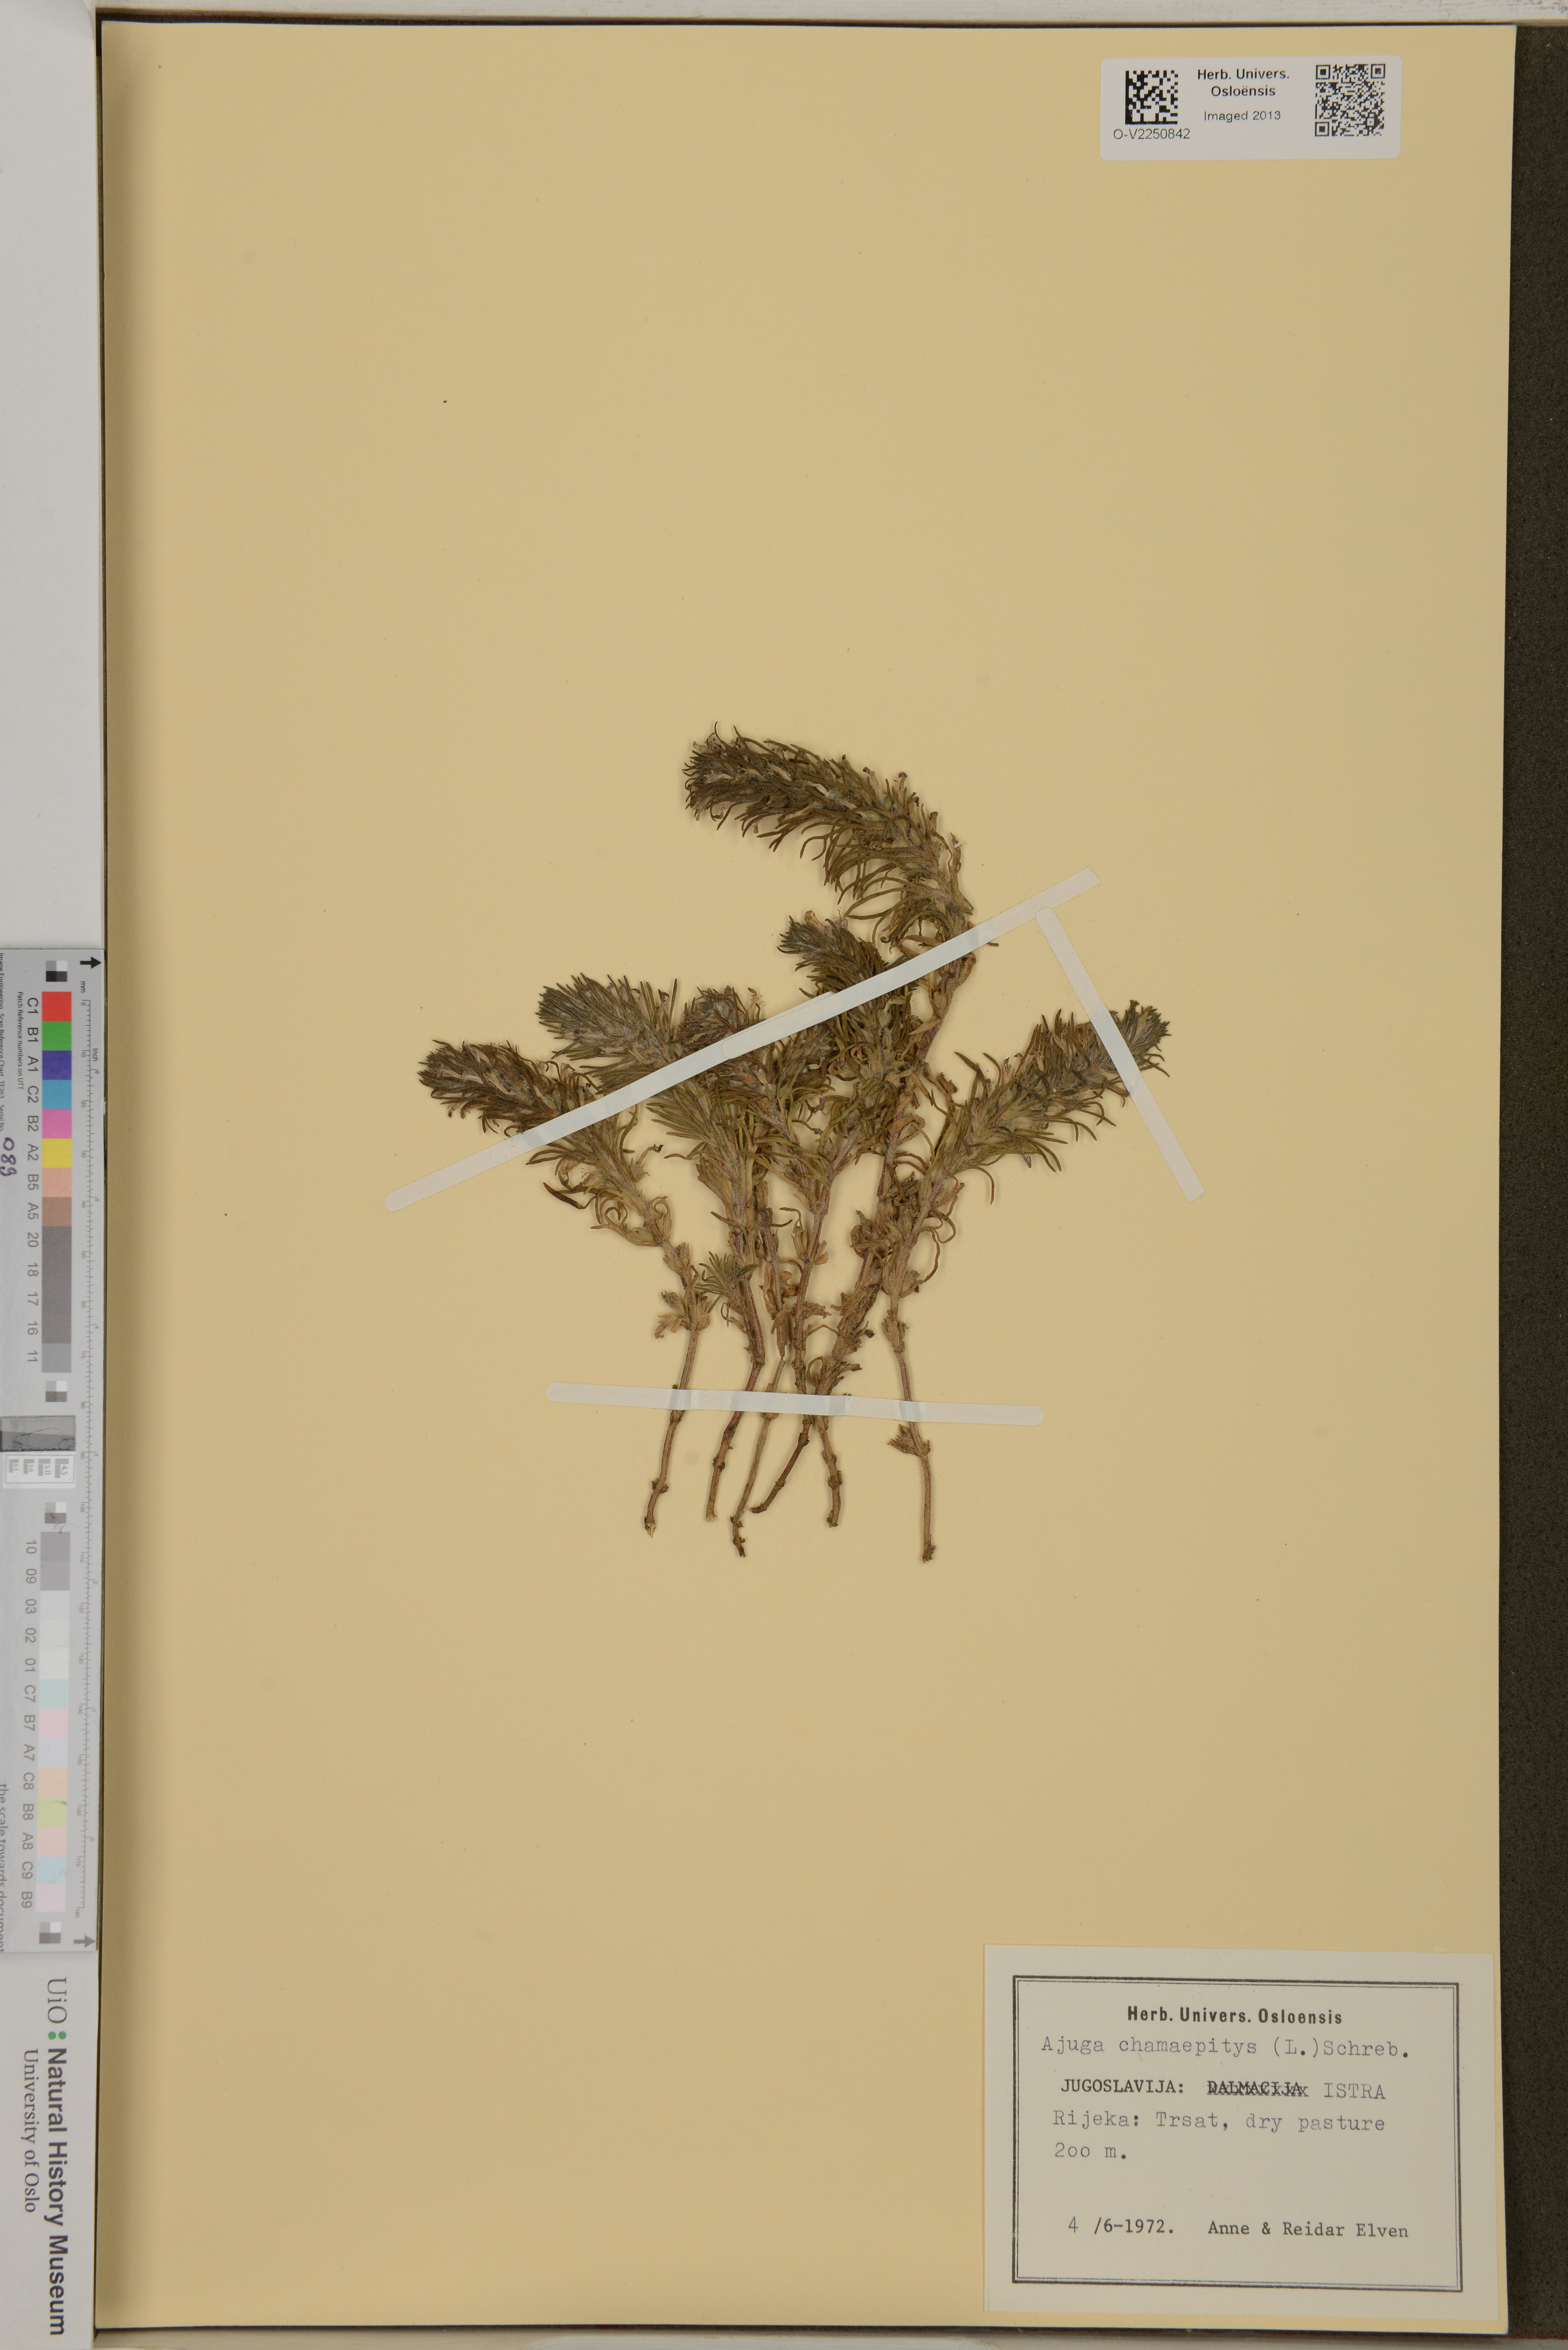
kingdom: Plantae
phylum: Tracheophyta
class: Magnoliopsida
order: Lamiales
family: Lamiaceae
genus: Ajuga
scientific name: Ajuga chamaepitys
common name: Ground-pine
